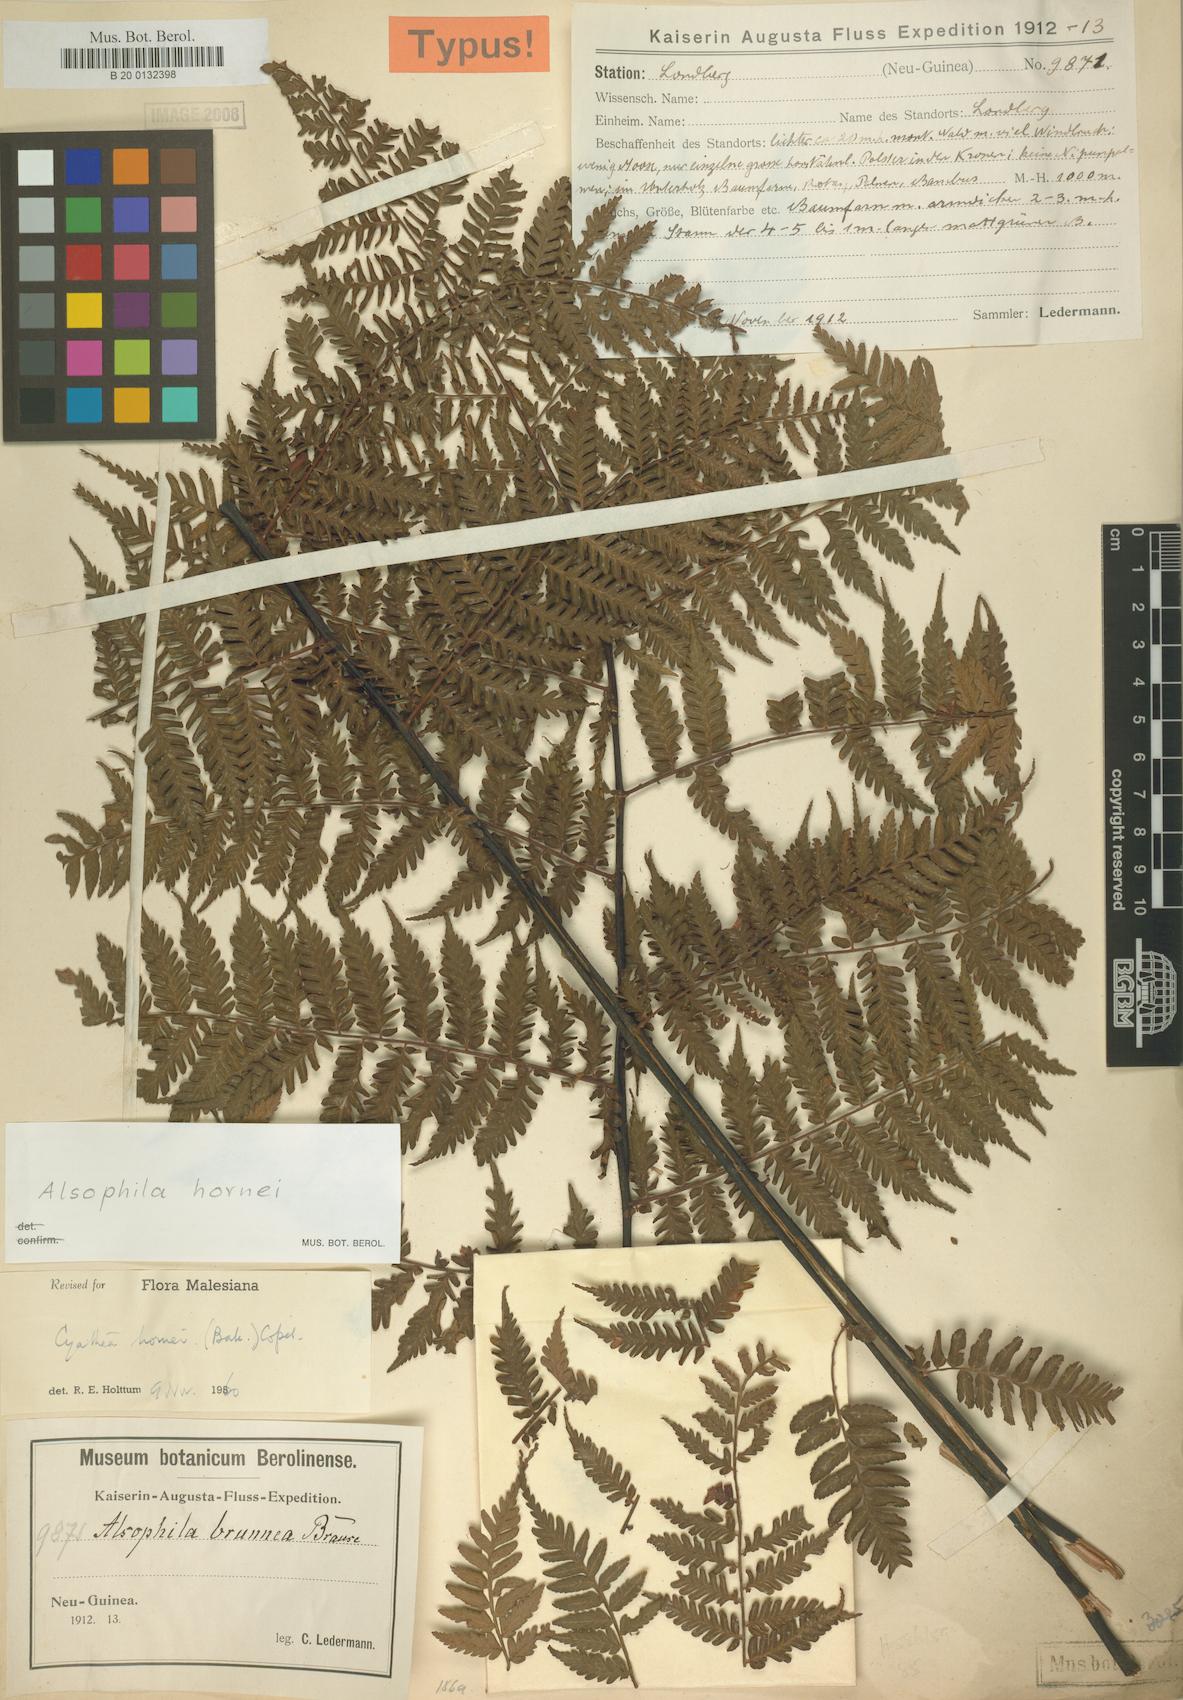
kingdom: Plantae
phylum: Tracheophyta
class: Polypodiopsida
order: Cyatheales
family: Cyatheaceae
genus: Gymnosphaera
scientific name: Gymnosphaera hornei
